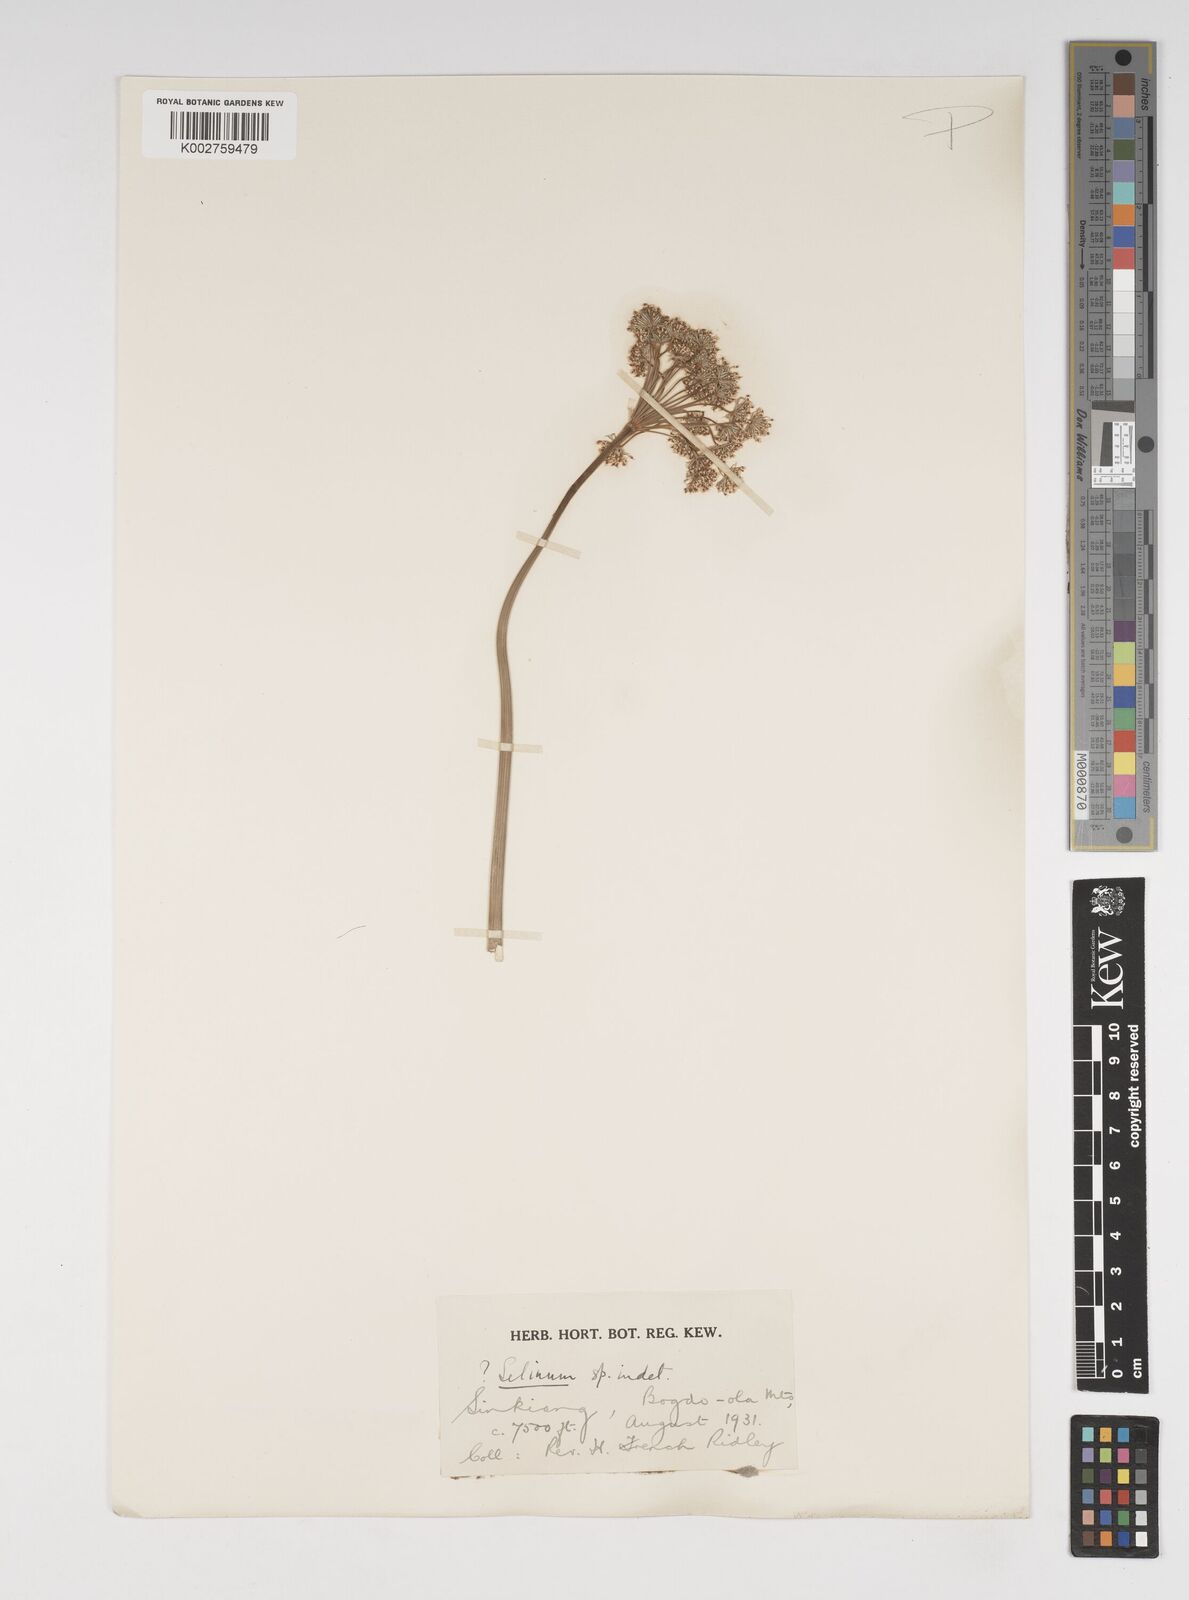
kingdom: Plantae
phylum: Tracheophyta
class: Magnoliopsida
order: Apiales
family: Apiaceae
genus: Kadenia
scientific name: Kadenia salina
